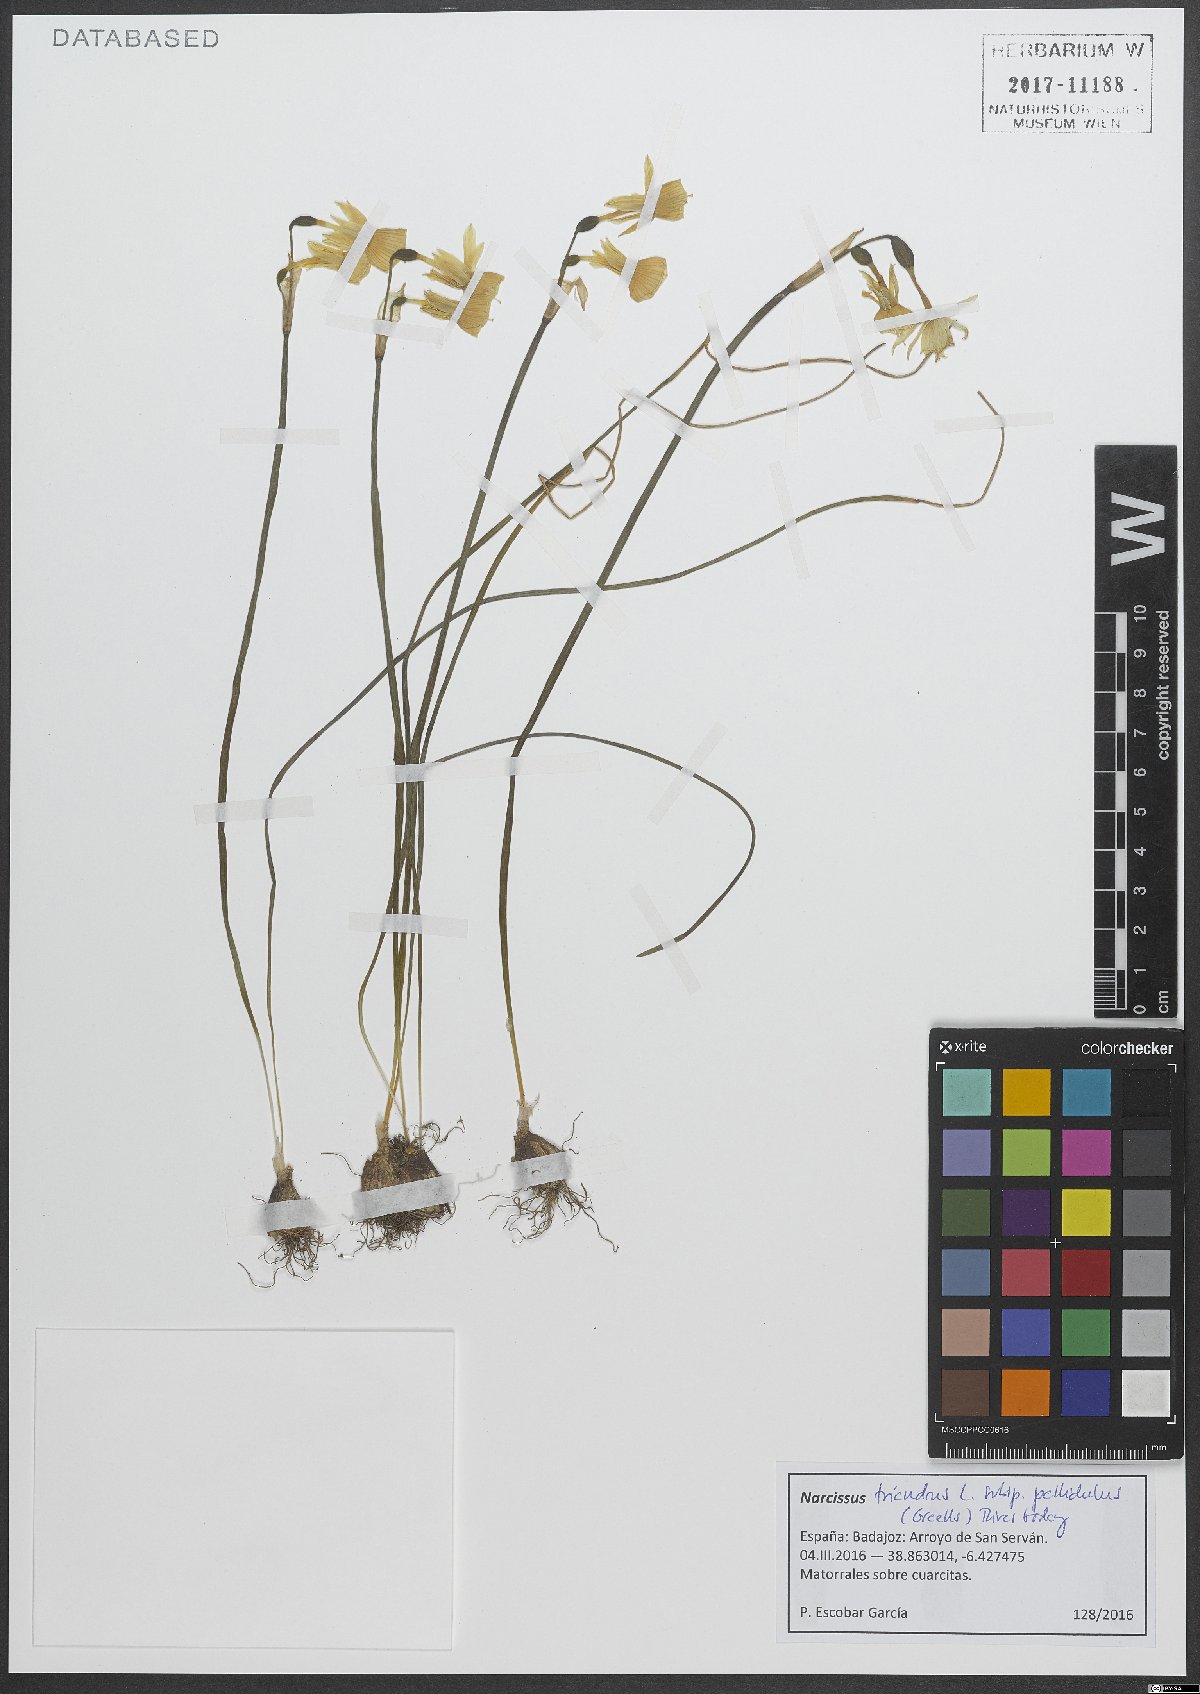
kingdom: Plantae
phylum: Tracheophyta
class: Liliopsida
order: Asparagales
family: Amaryllidaceae
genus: Narcissus
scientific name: Narcissus triandrus
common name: Angel's-tears
